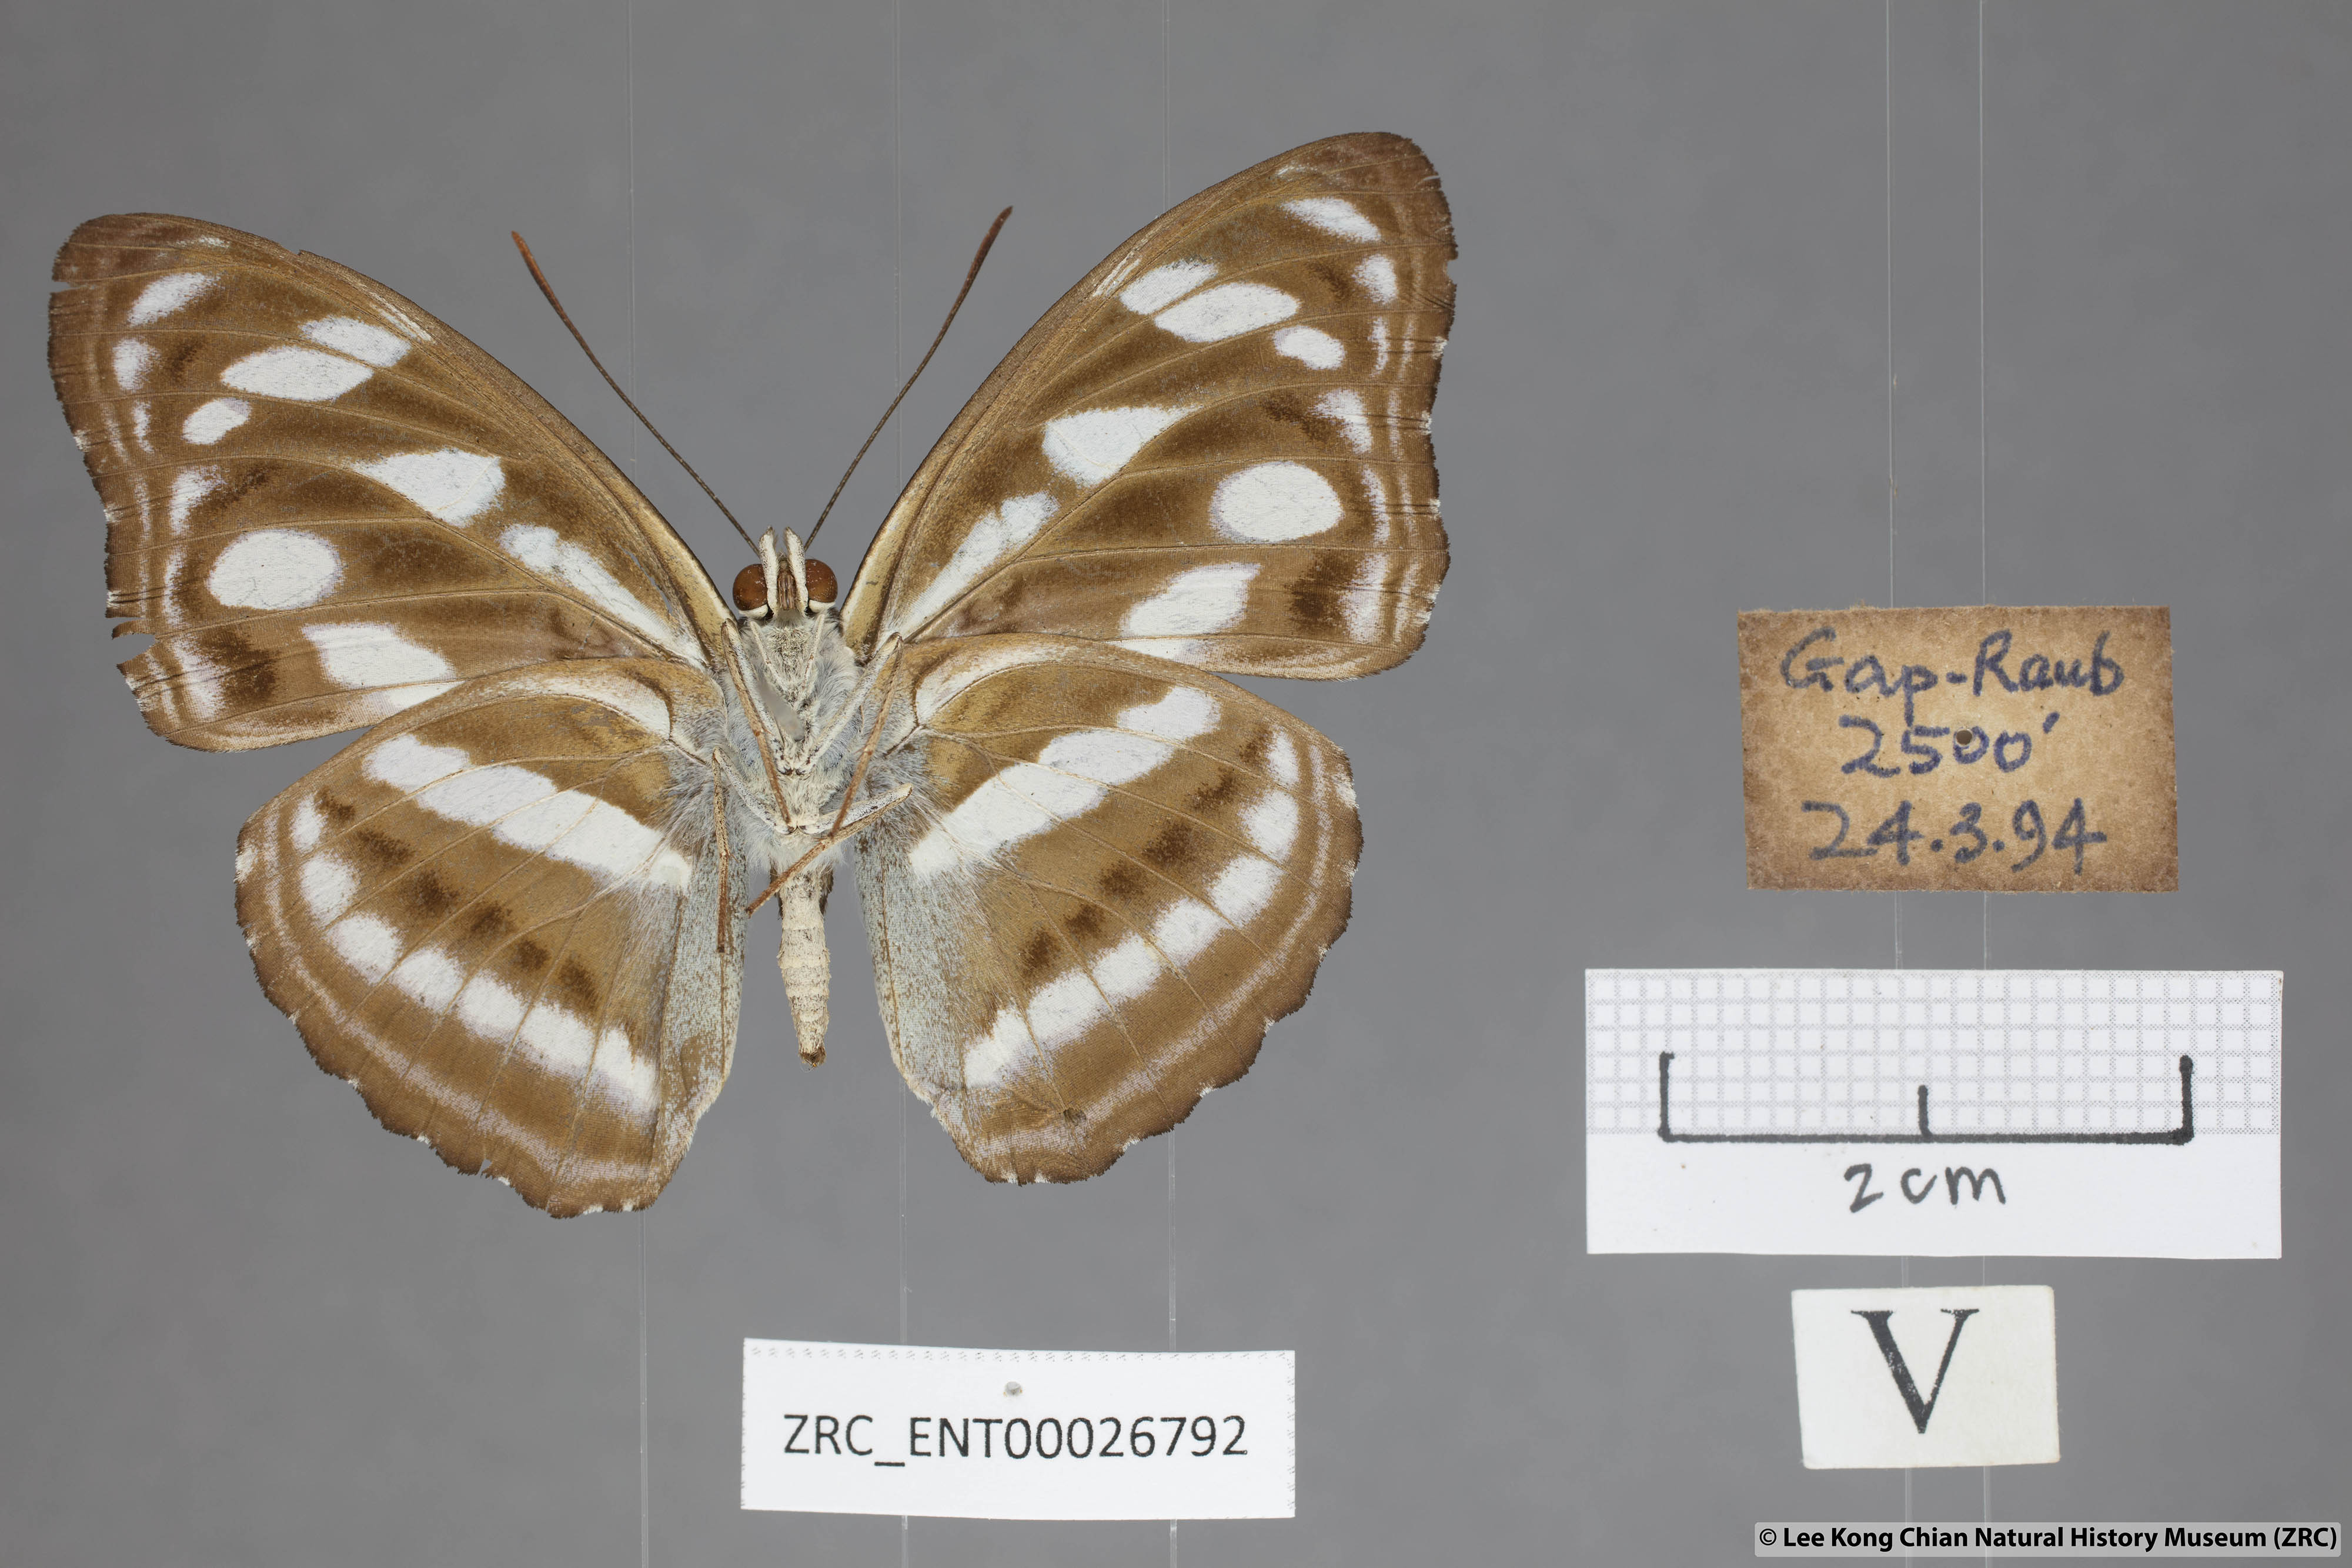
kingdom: Animalia
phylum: Arthropoda
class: Insecta
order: Lepidoptera
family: Nymphalidae
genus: Pantoporia
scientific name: Pantoporia
